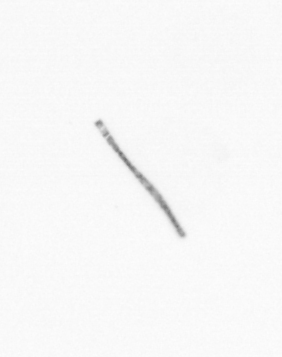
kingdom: Chromista
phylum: Ochrophyta
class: Bacillariophyceae
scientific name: Bacillariophyceae
